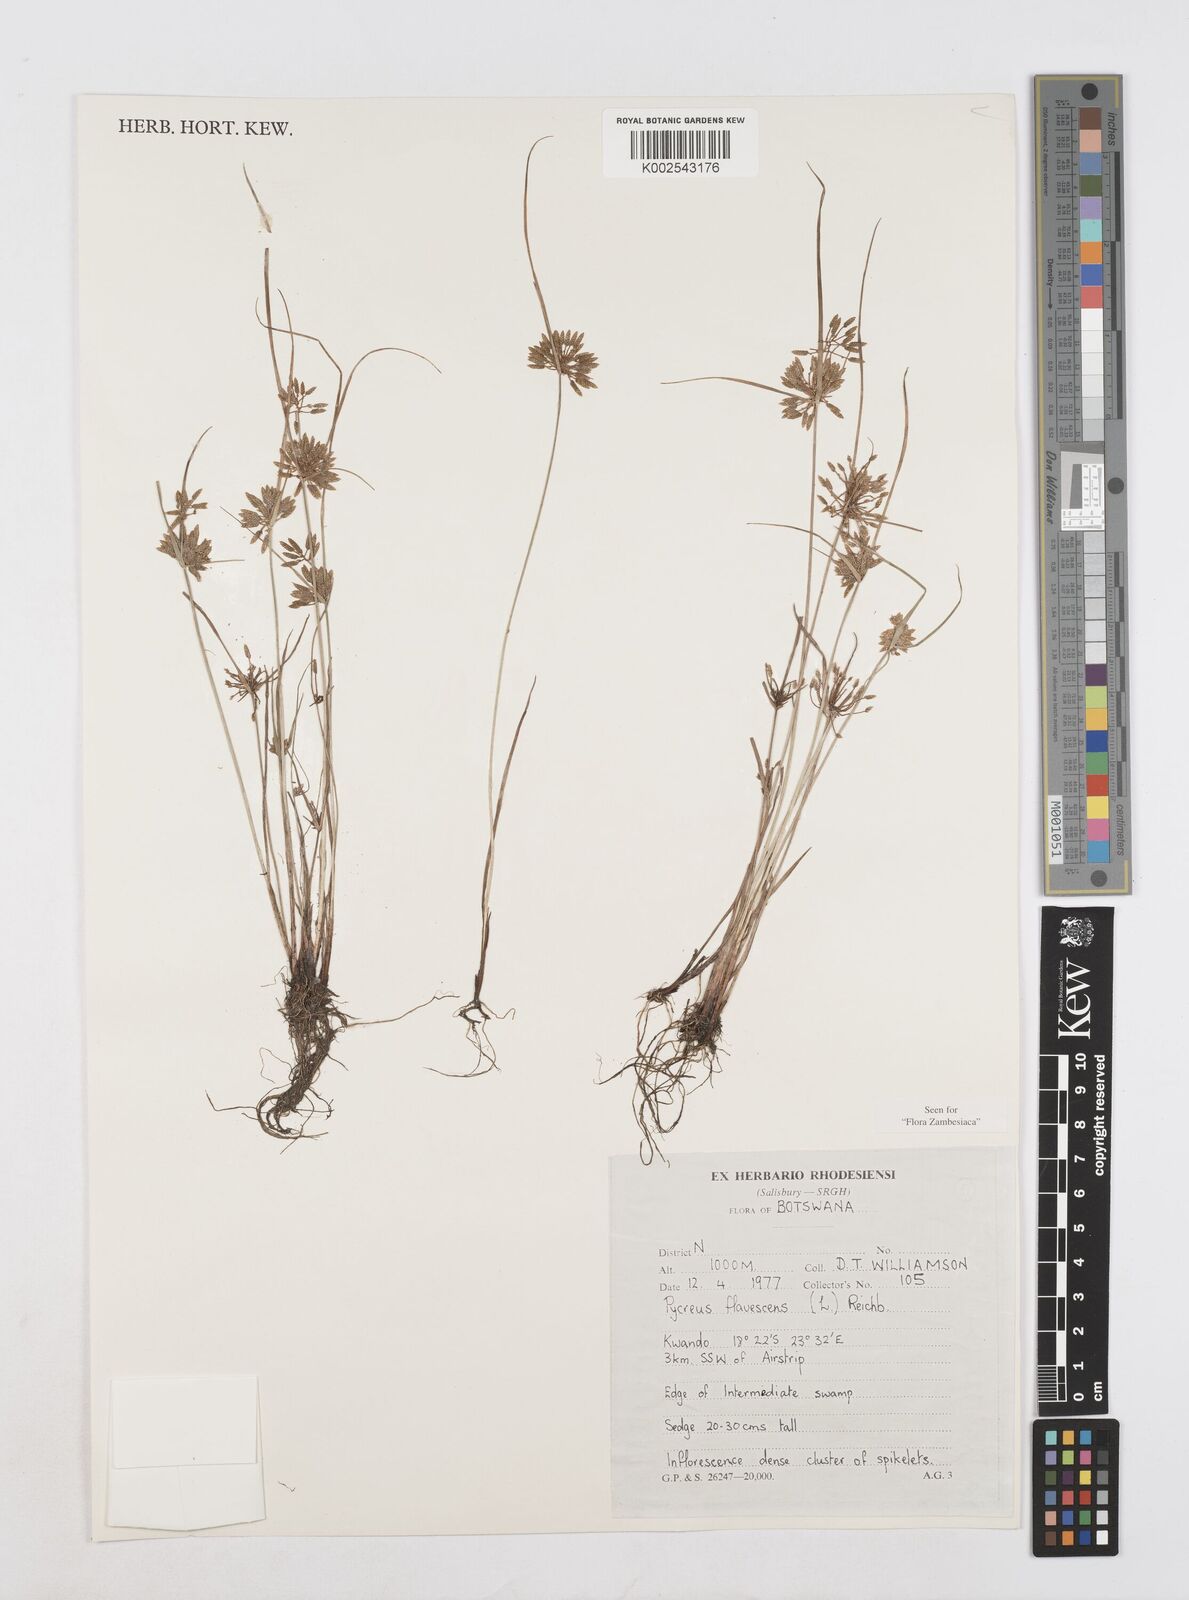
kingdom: Plantae
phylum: Tracheophyta
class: Liliopsida
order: Poales
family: Cyperaceae
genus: Cyperus
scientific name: Cyperus flavescens
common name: Yellow galingale
